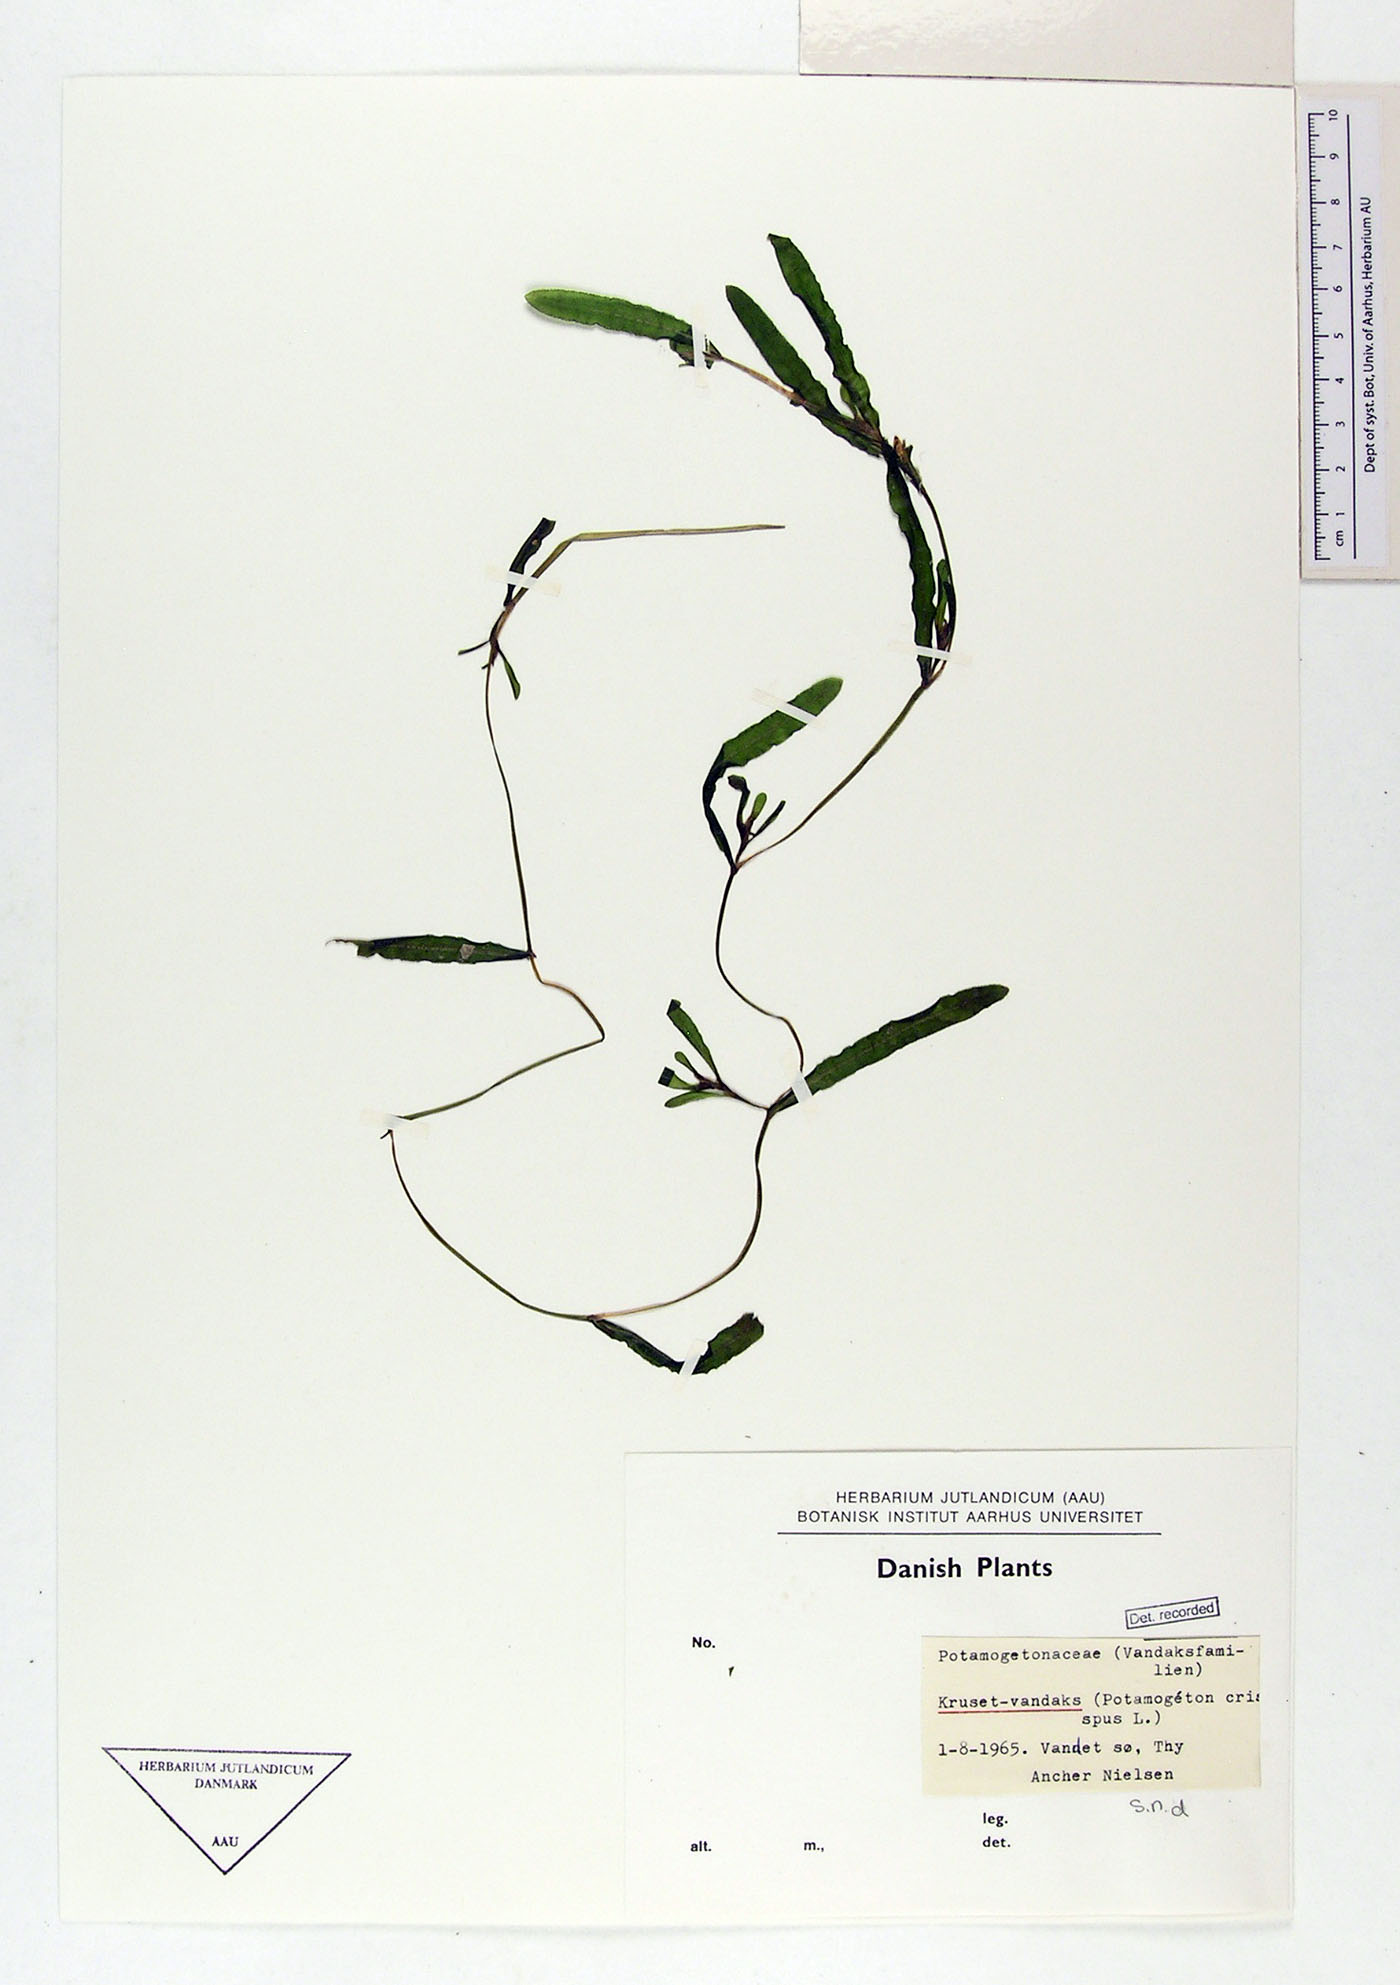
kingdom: Plantae
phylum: Tracheophyta
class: Liliopsida
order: Alismatales
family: Potamogetonaceae
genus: Potamogeton
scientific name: Potamogeton crispus
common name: Curled pondweed
